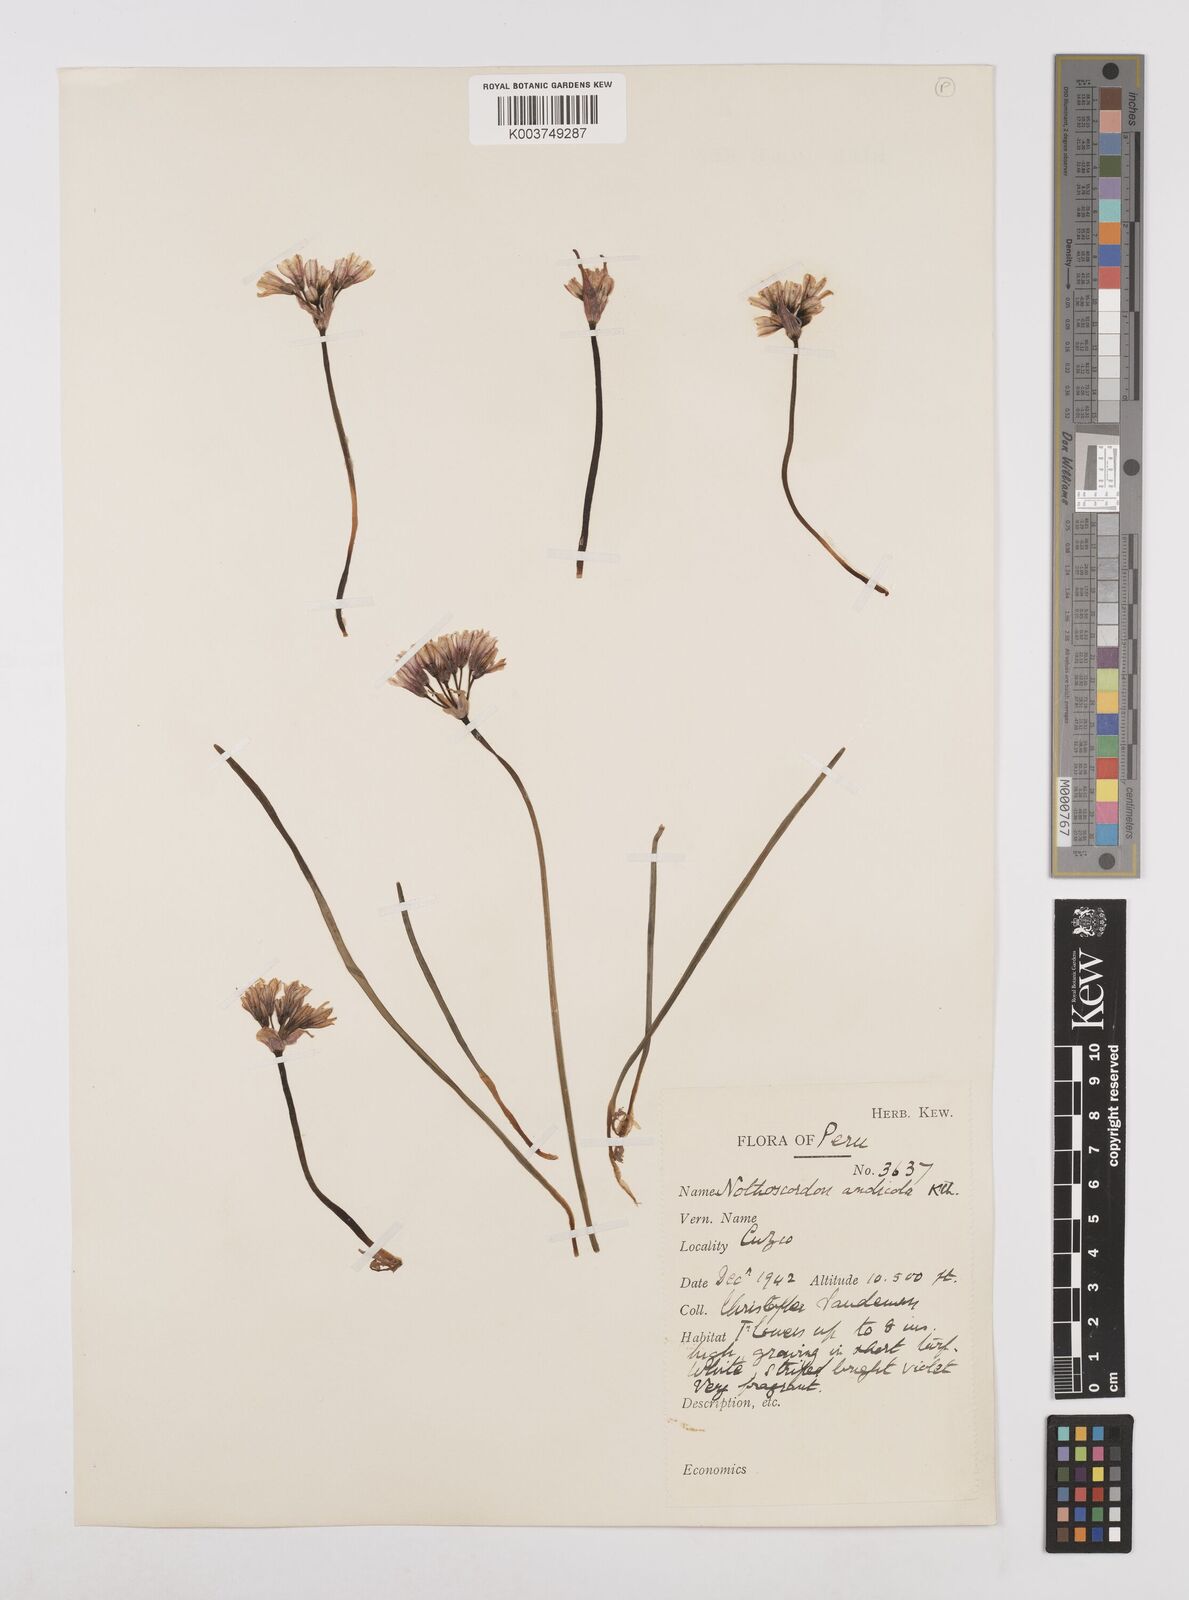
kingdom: Plantae
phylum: Tracheophyta
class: Liliopsida
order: Asparagales
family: Amaryllidaceae
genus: Nothoscordum
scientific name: Nothoscordum andicola
